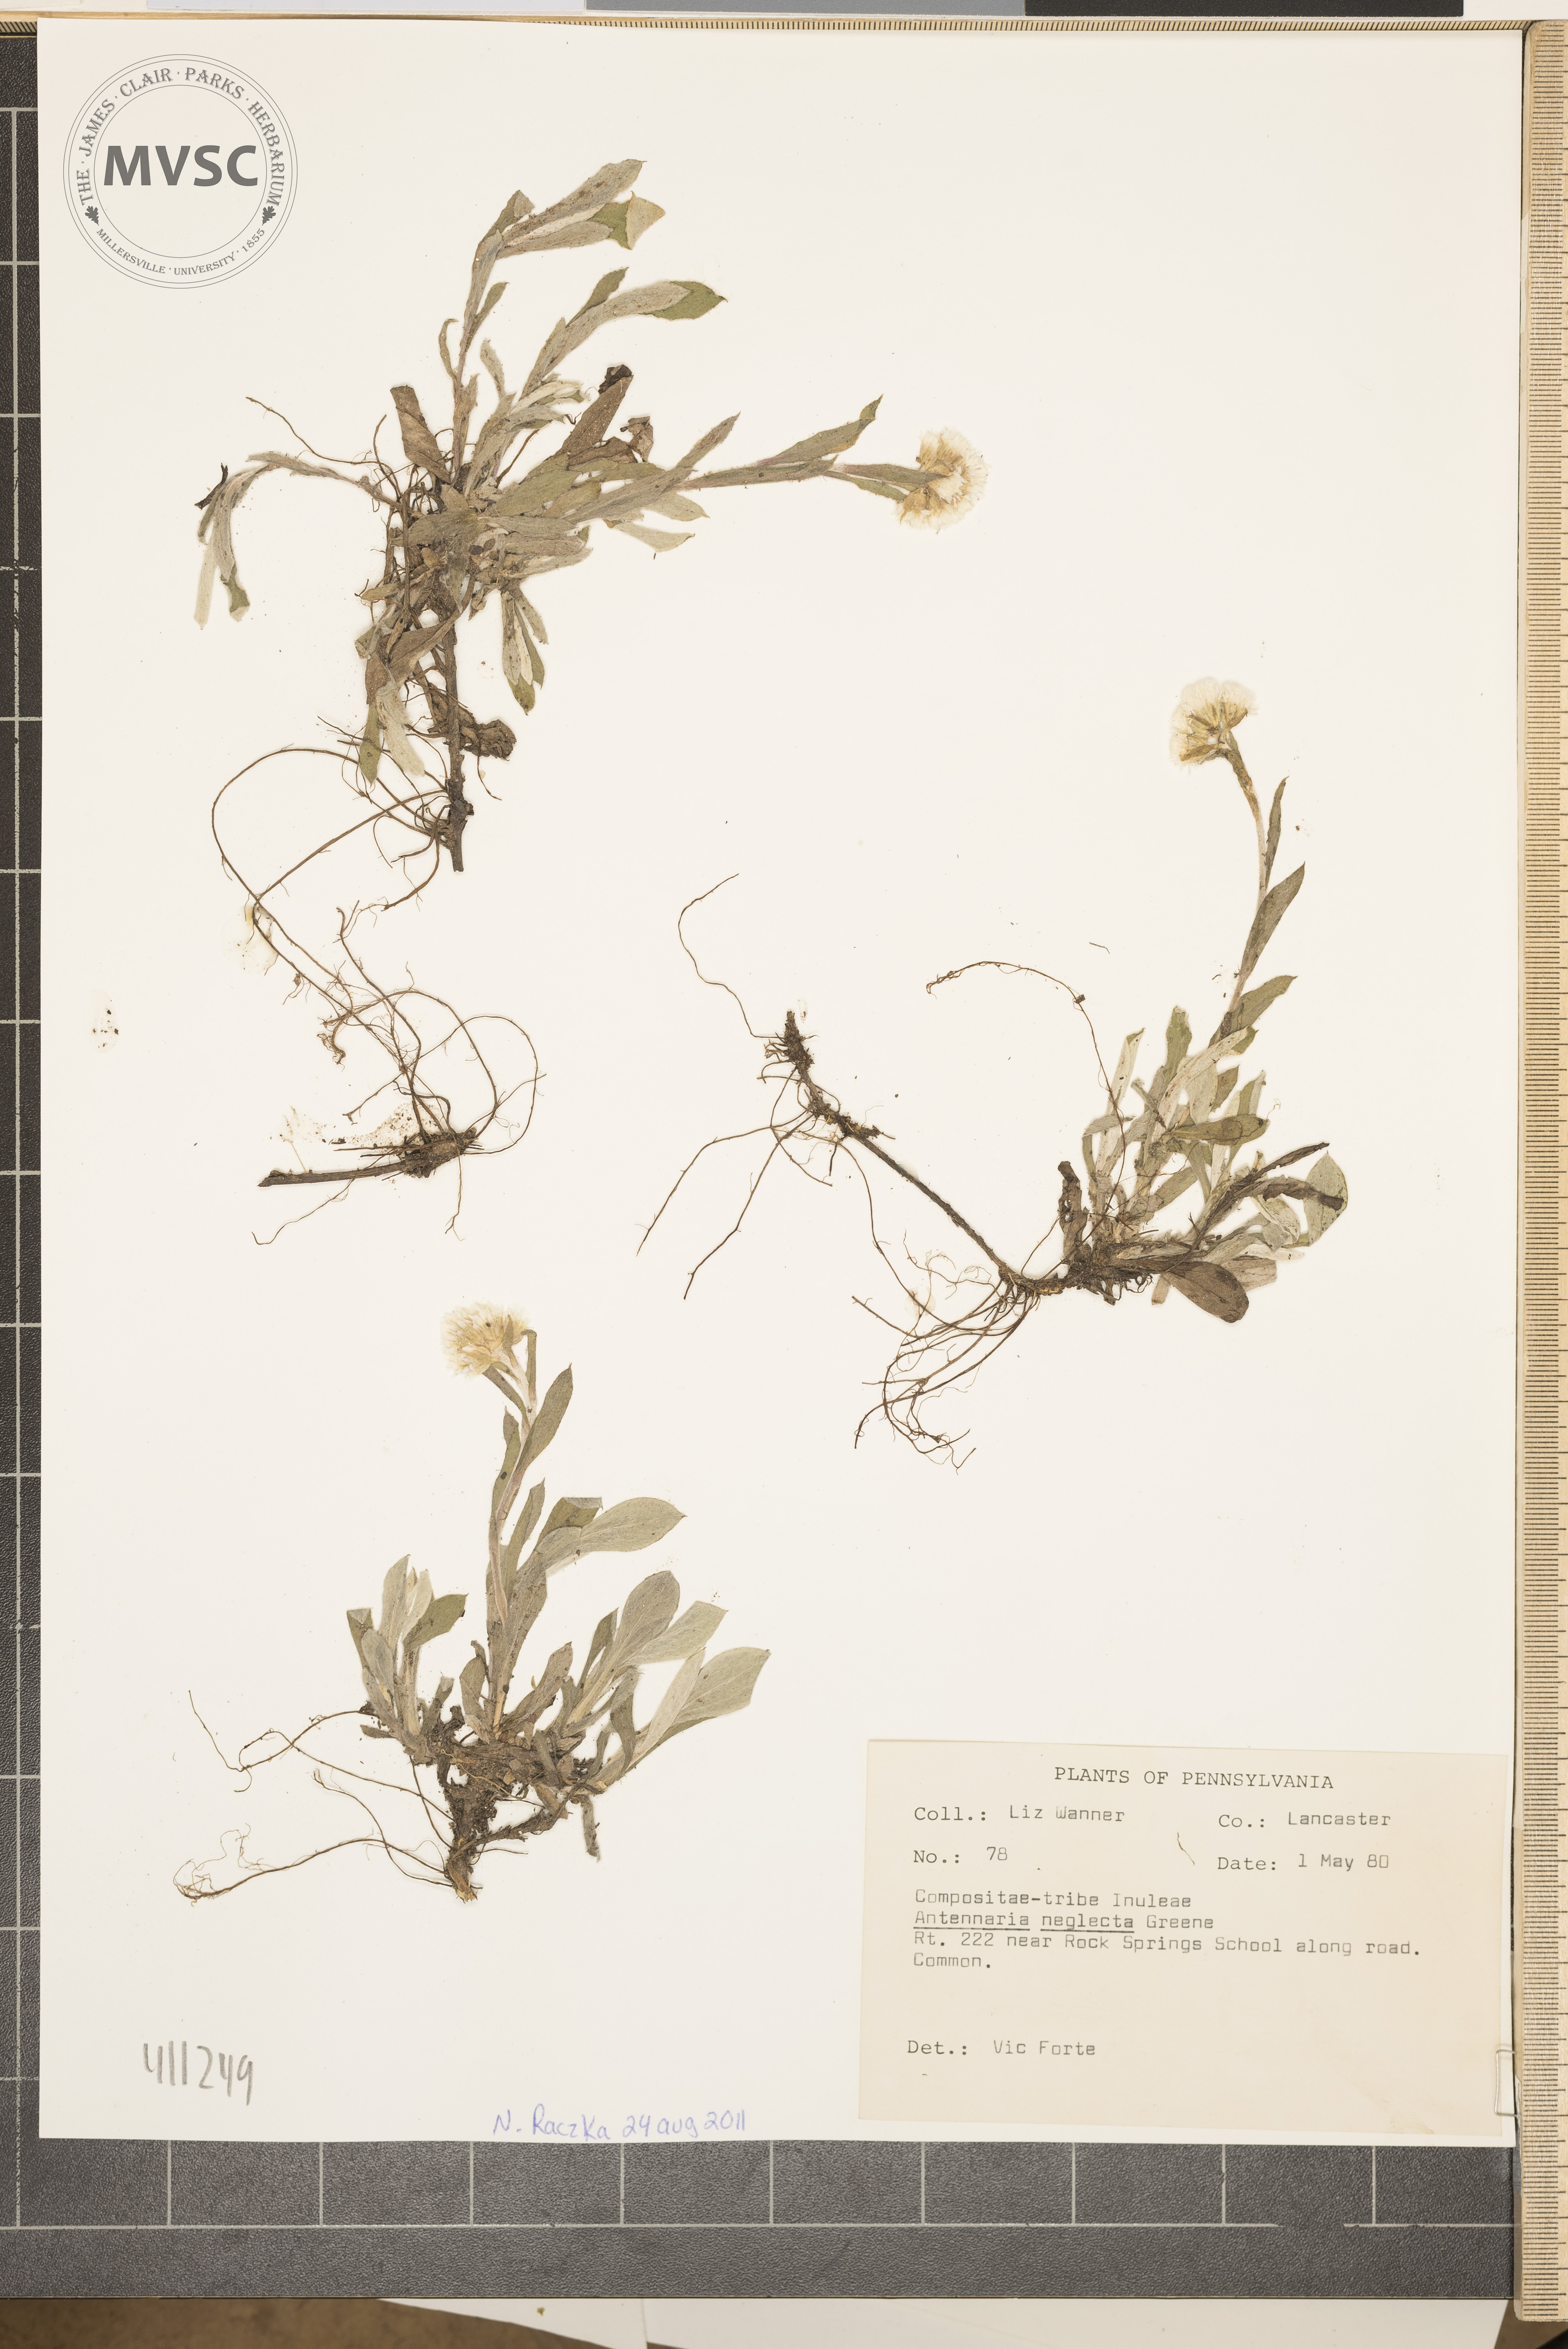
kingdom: Plantae
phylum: Tracheophyta
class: Magnoliopsida
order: Asterales
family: Asteraceae
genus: Antennaria
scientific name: Antennaria neglecta
